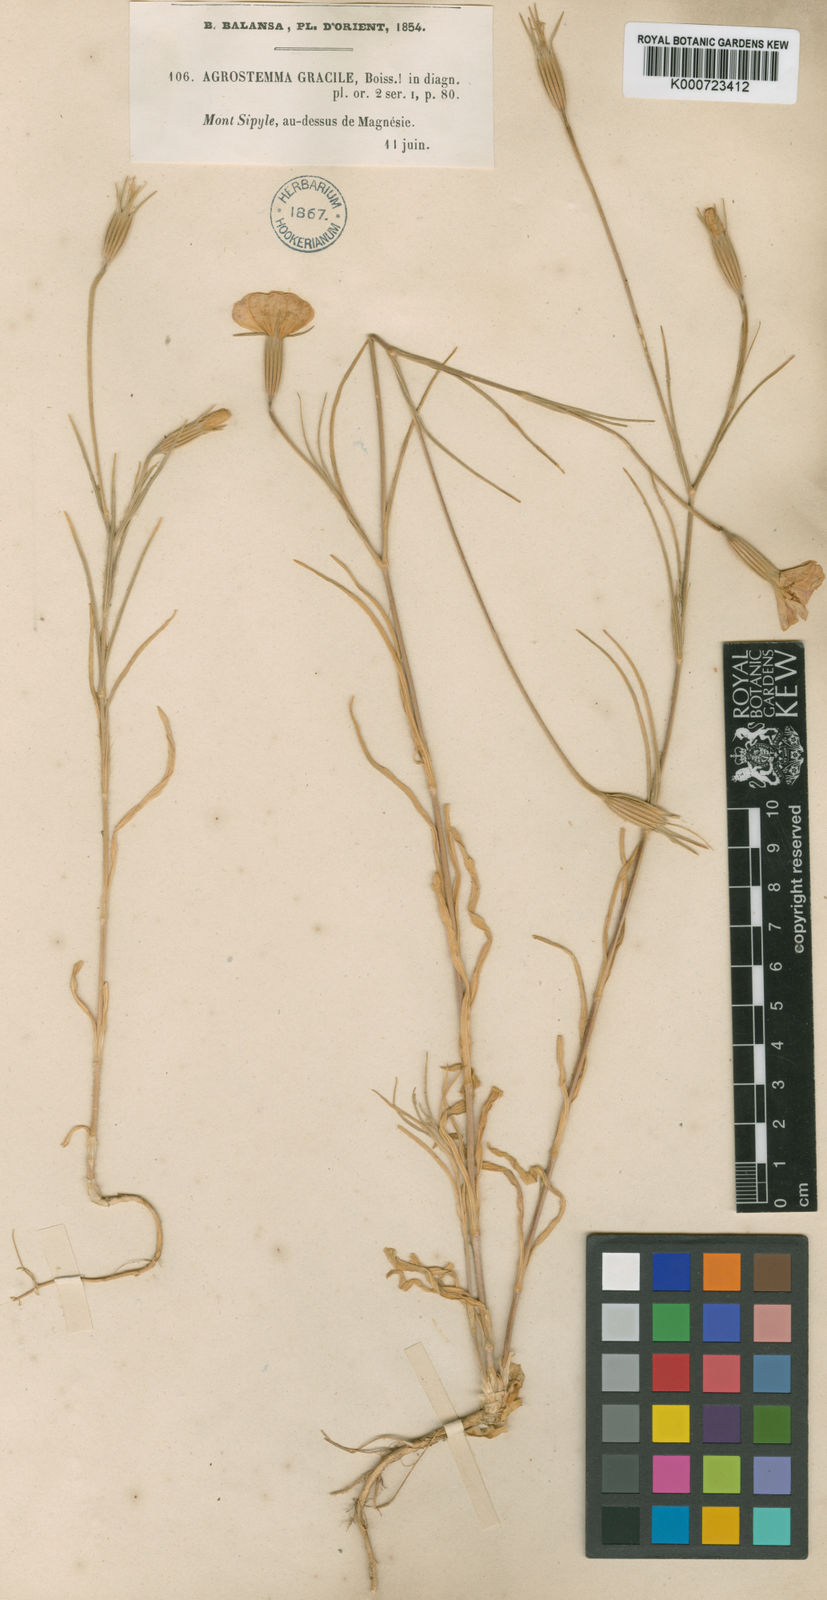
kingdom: Plantae
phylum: Tracheophyta
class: Magnoliopsida
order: Caryophyllales
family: Caryophyllaceae
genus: Agrostemma
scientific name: Agrostemma brachyloba
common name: Narrow corncockle
